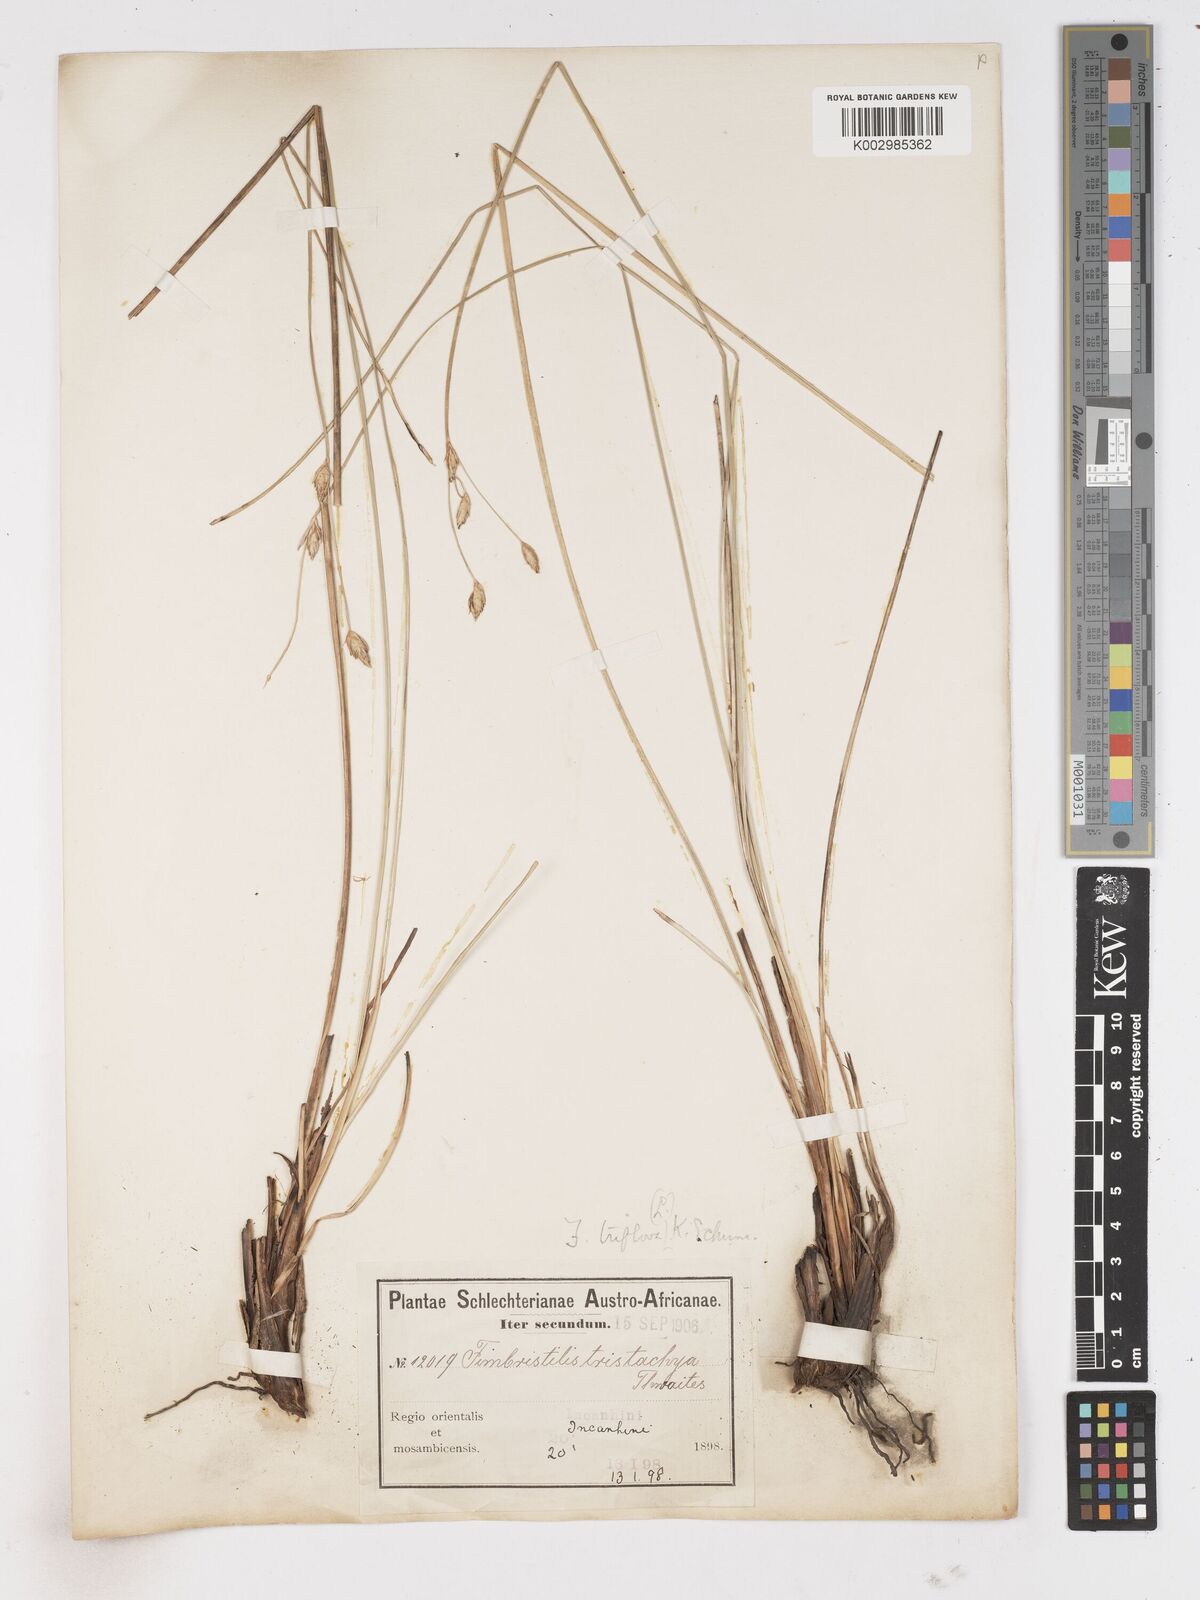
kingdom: Plantae
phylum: Tracheophyta
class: Liliopsida
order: Poales
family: Cyperaceae
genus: Abildgaardia
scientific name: Abildgaardia triflora
